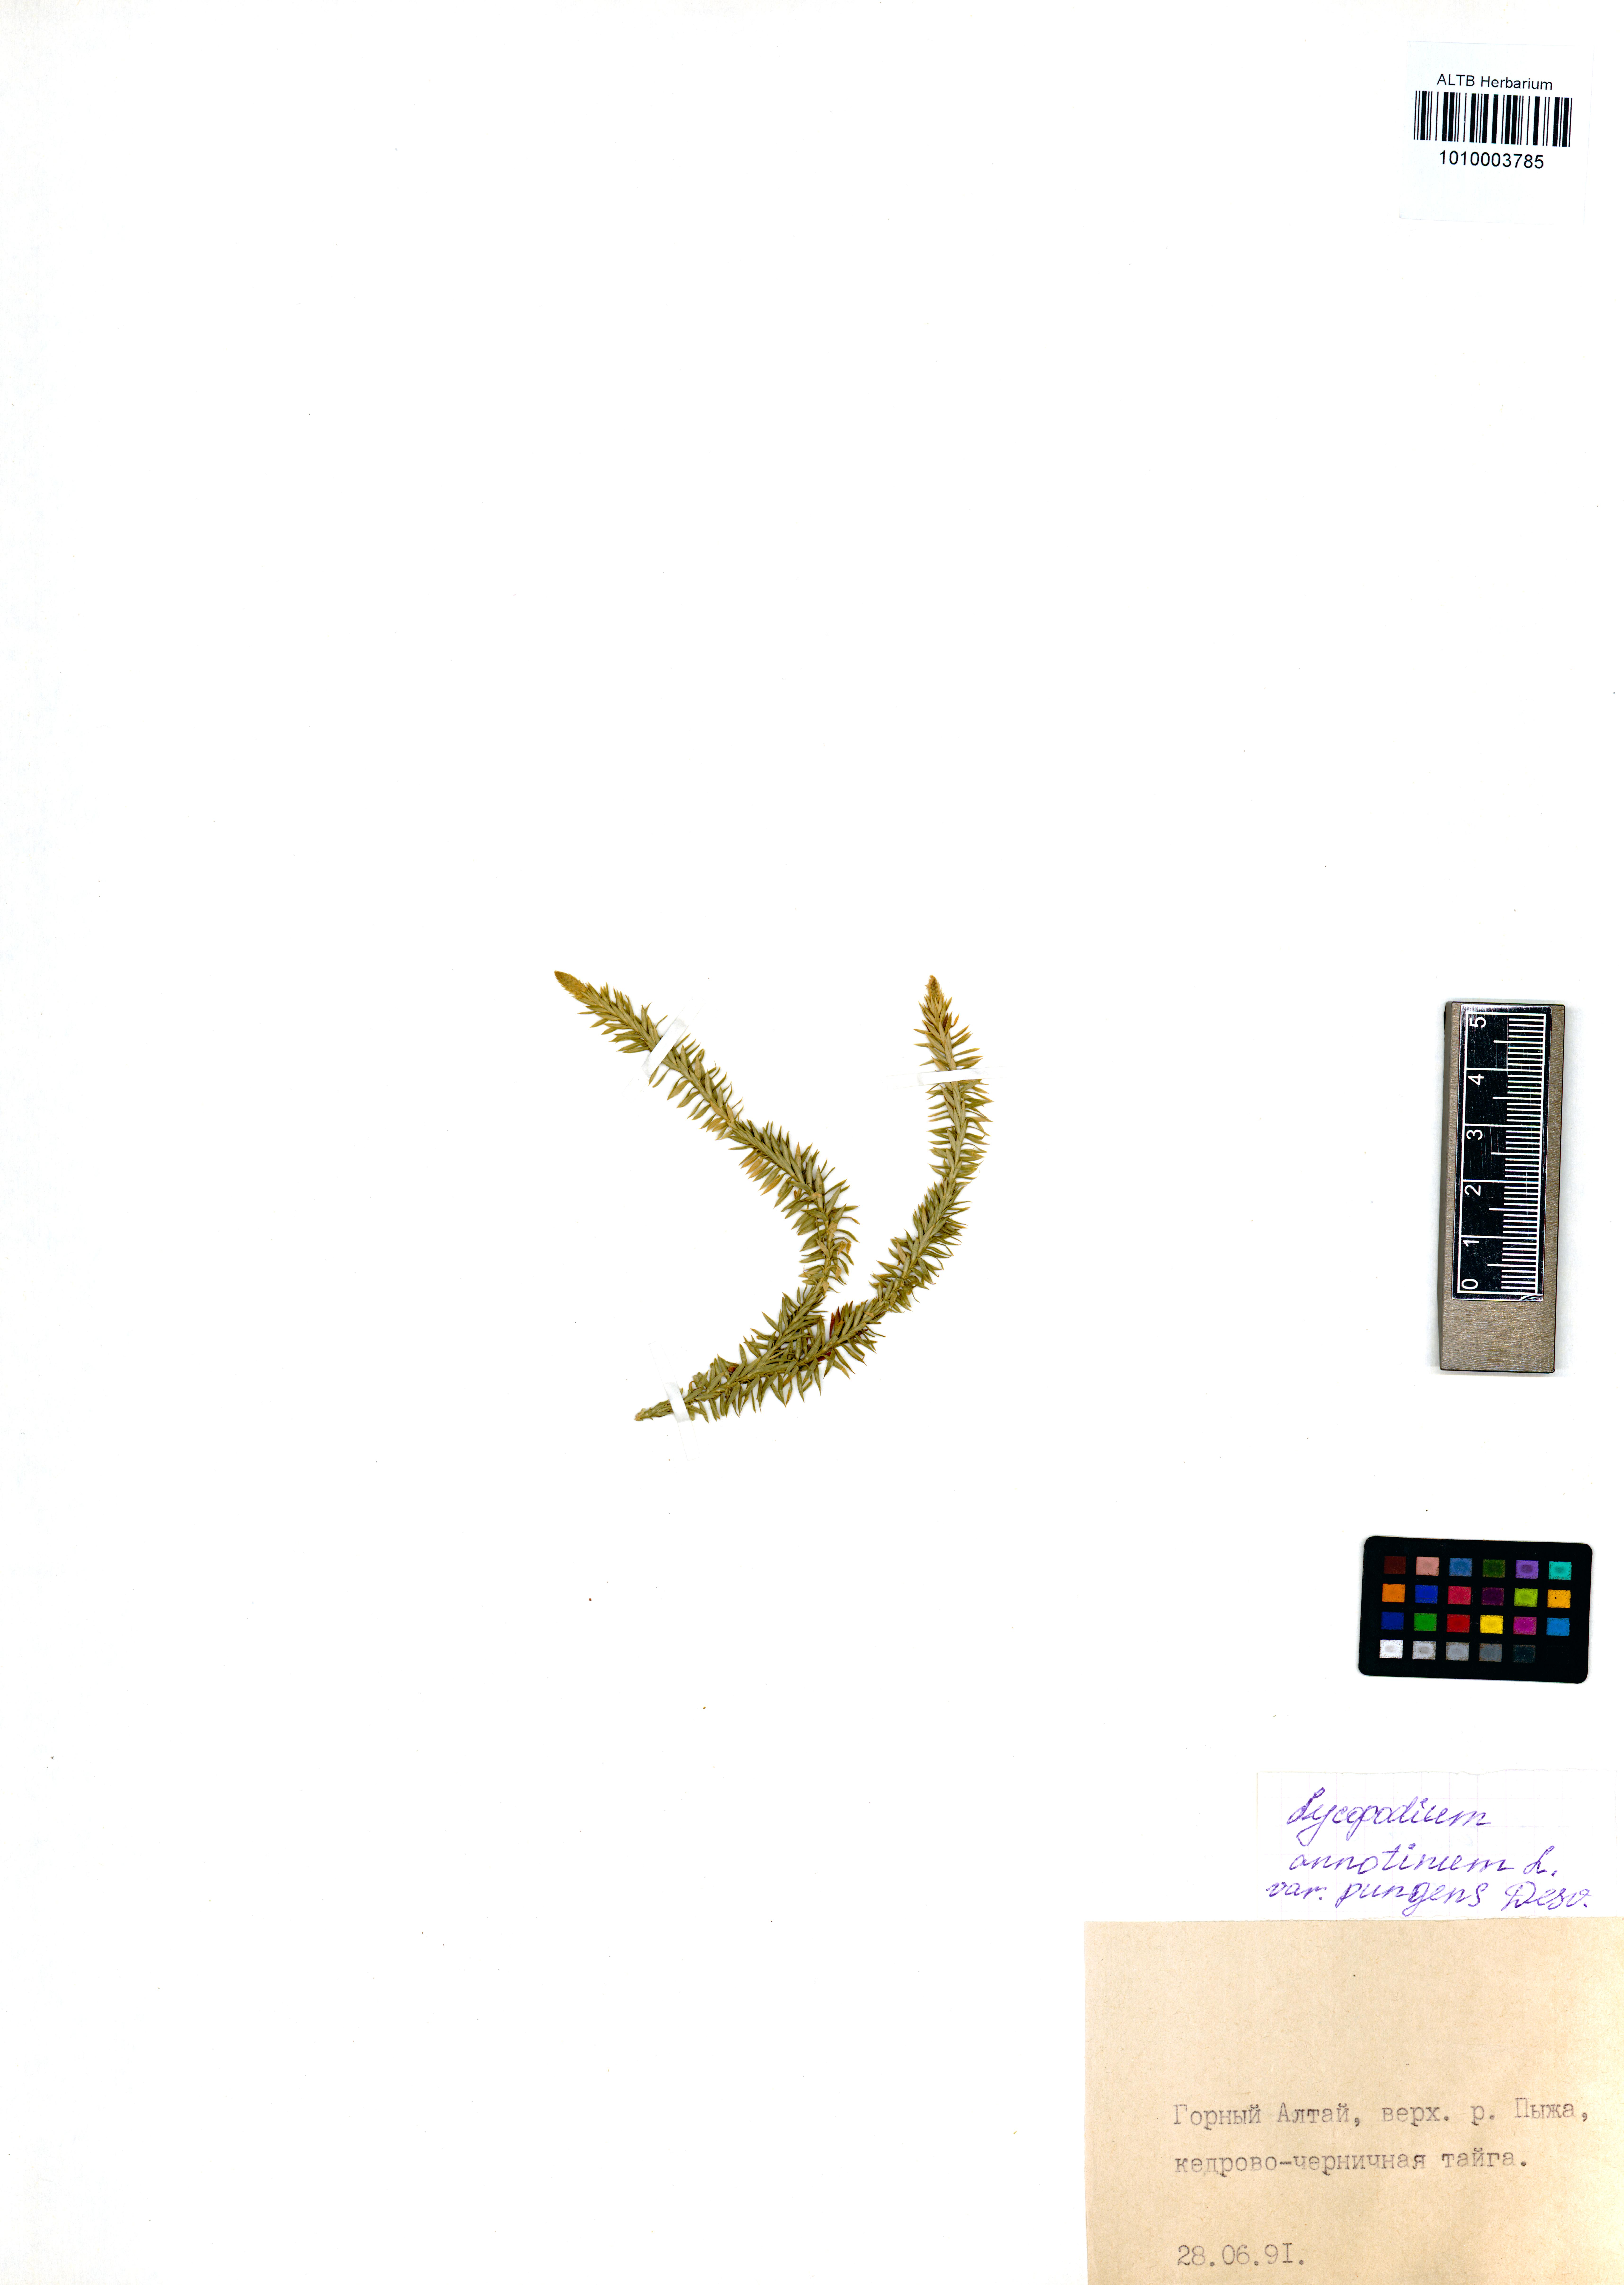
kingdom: Plantae
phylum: Tracheophyta
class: Lycopodiopsida
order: Lycopodiales
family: Lycopodiaceae
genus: Spinulum
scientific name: Spinulum annotinum
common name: Interrupted club-moss
